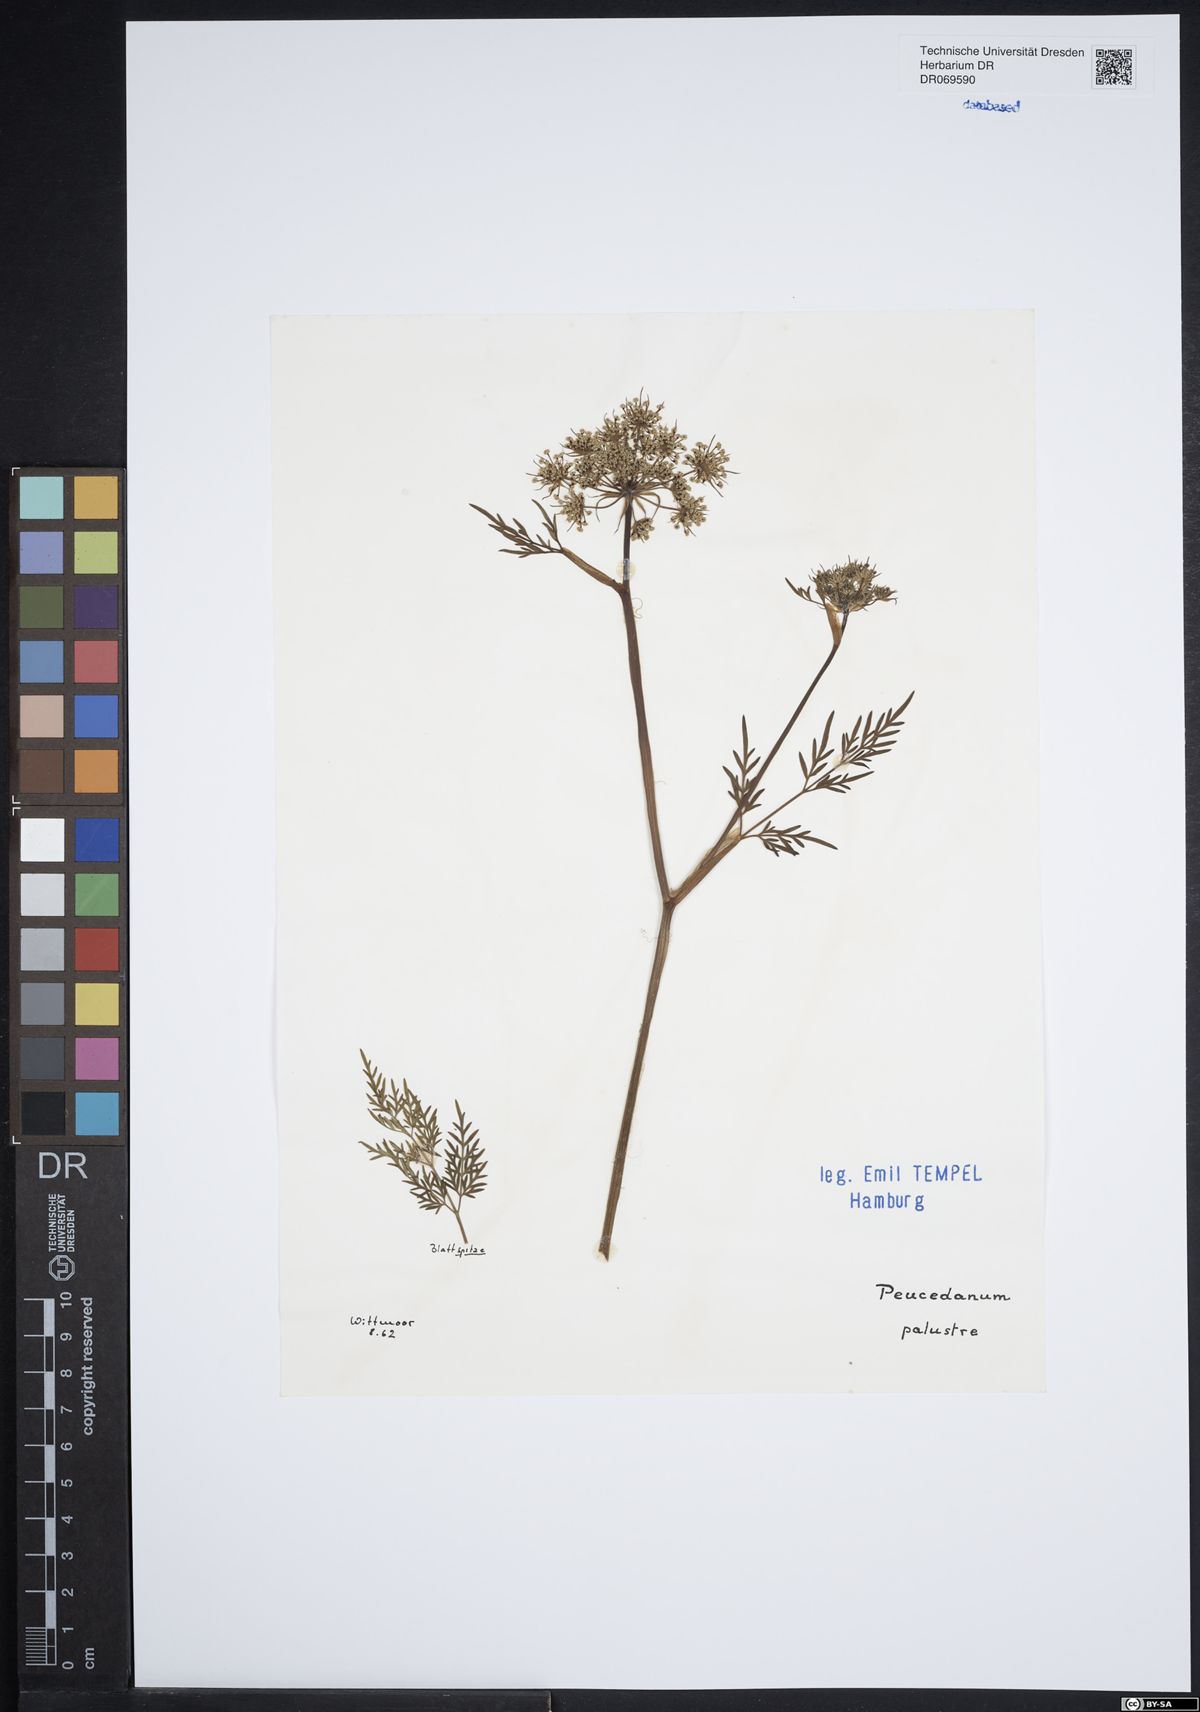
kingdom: Plantae
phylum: Tracheophyta
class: Magnoliopsida
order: Apiales
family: Apiaceae
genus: Thysselinum
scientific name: Thysselinum palustre
